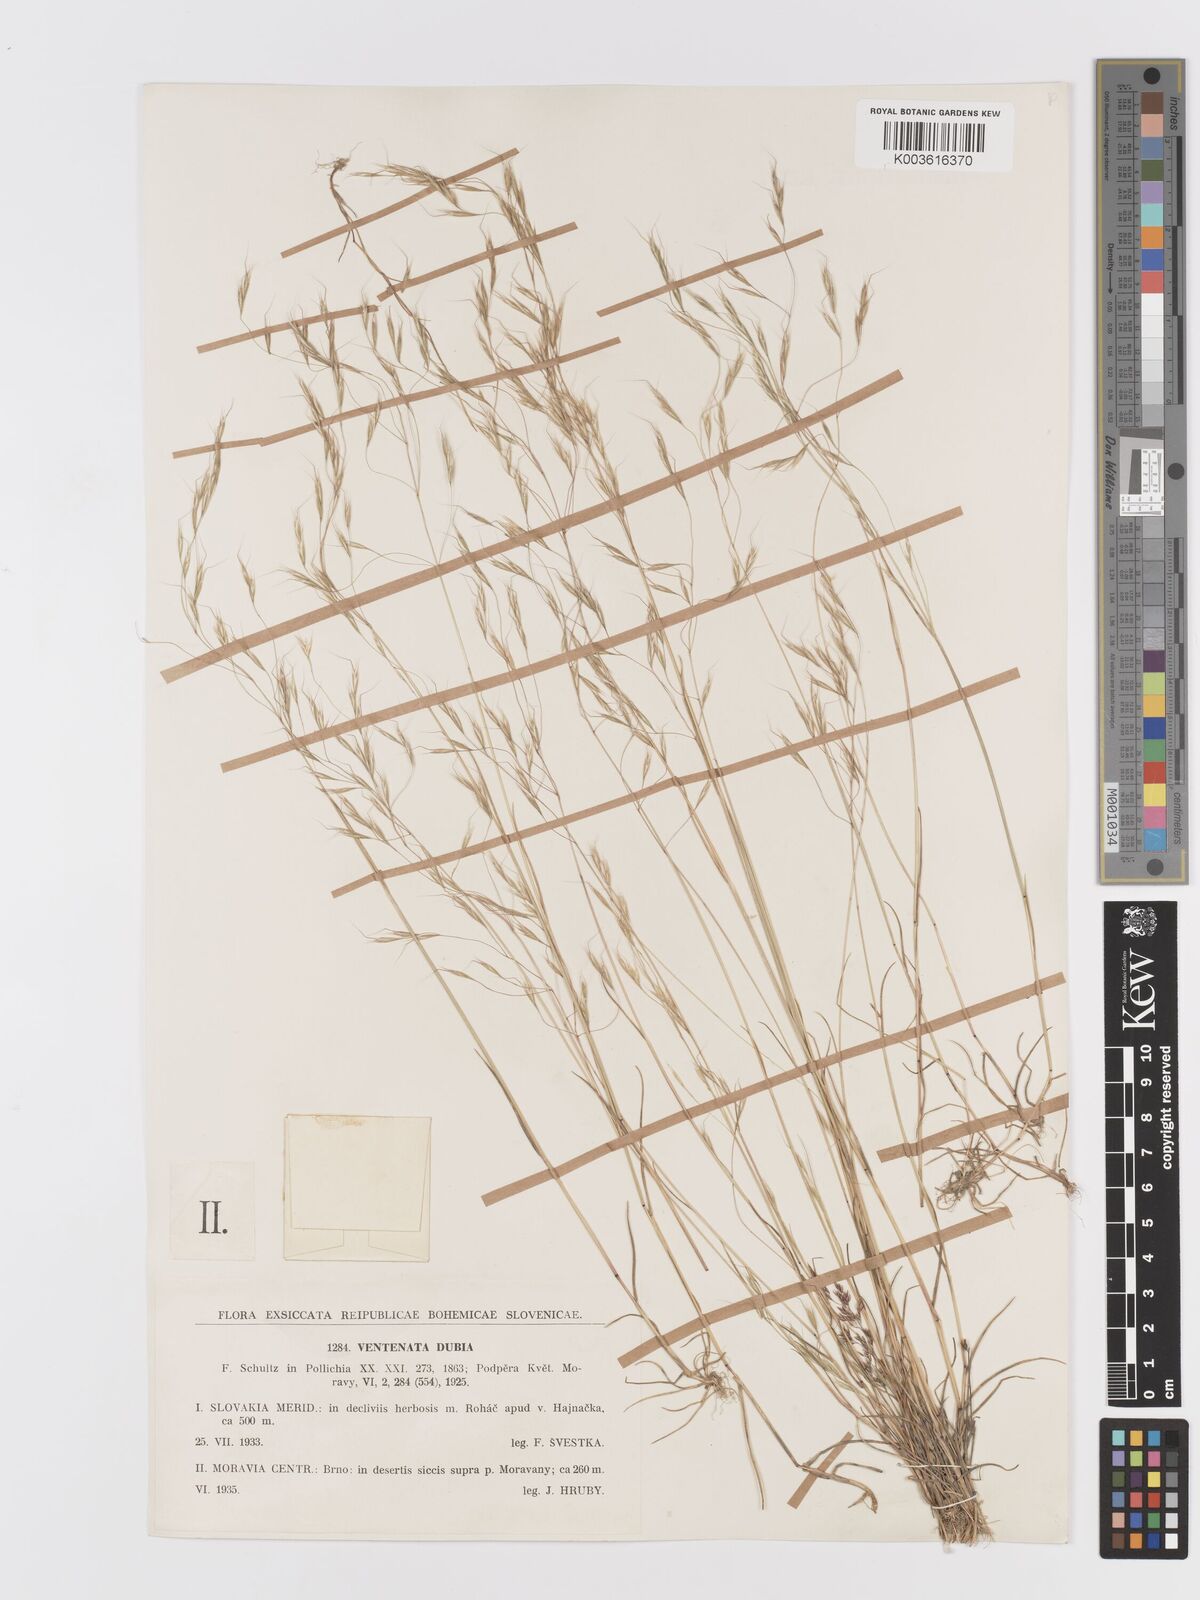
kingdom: Plantae
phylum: Tracheophyta
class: Liliopsida
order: Poales
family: Poaceae
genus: Ventenata
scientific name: Ventenata dubia
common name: North africa grass
